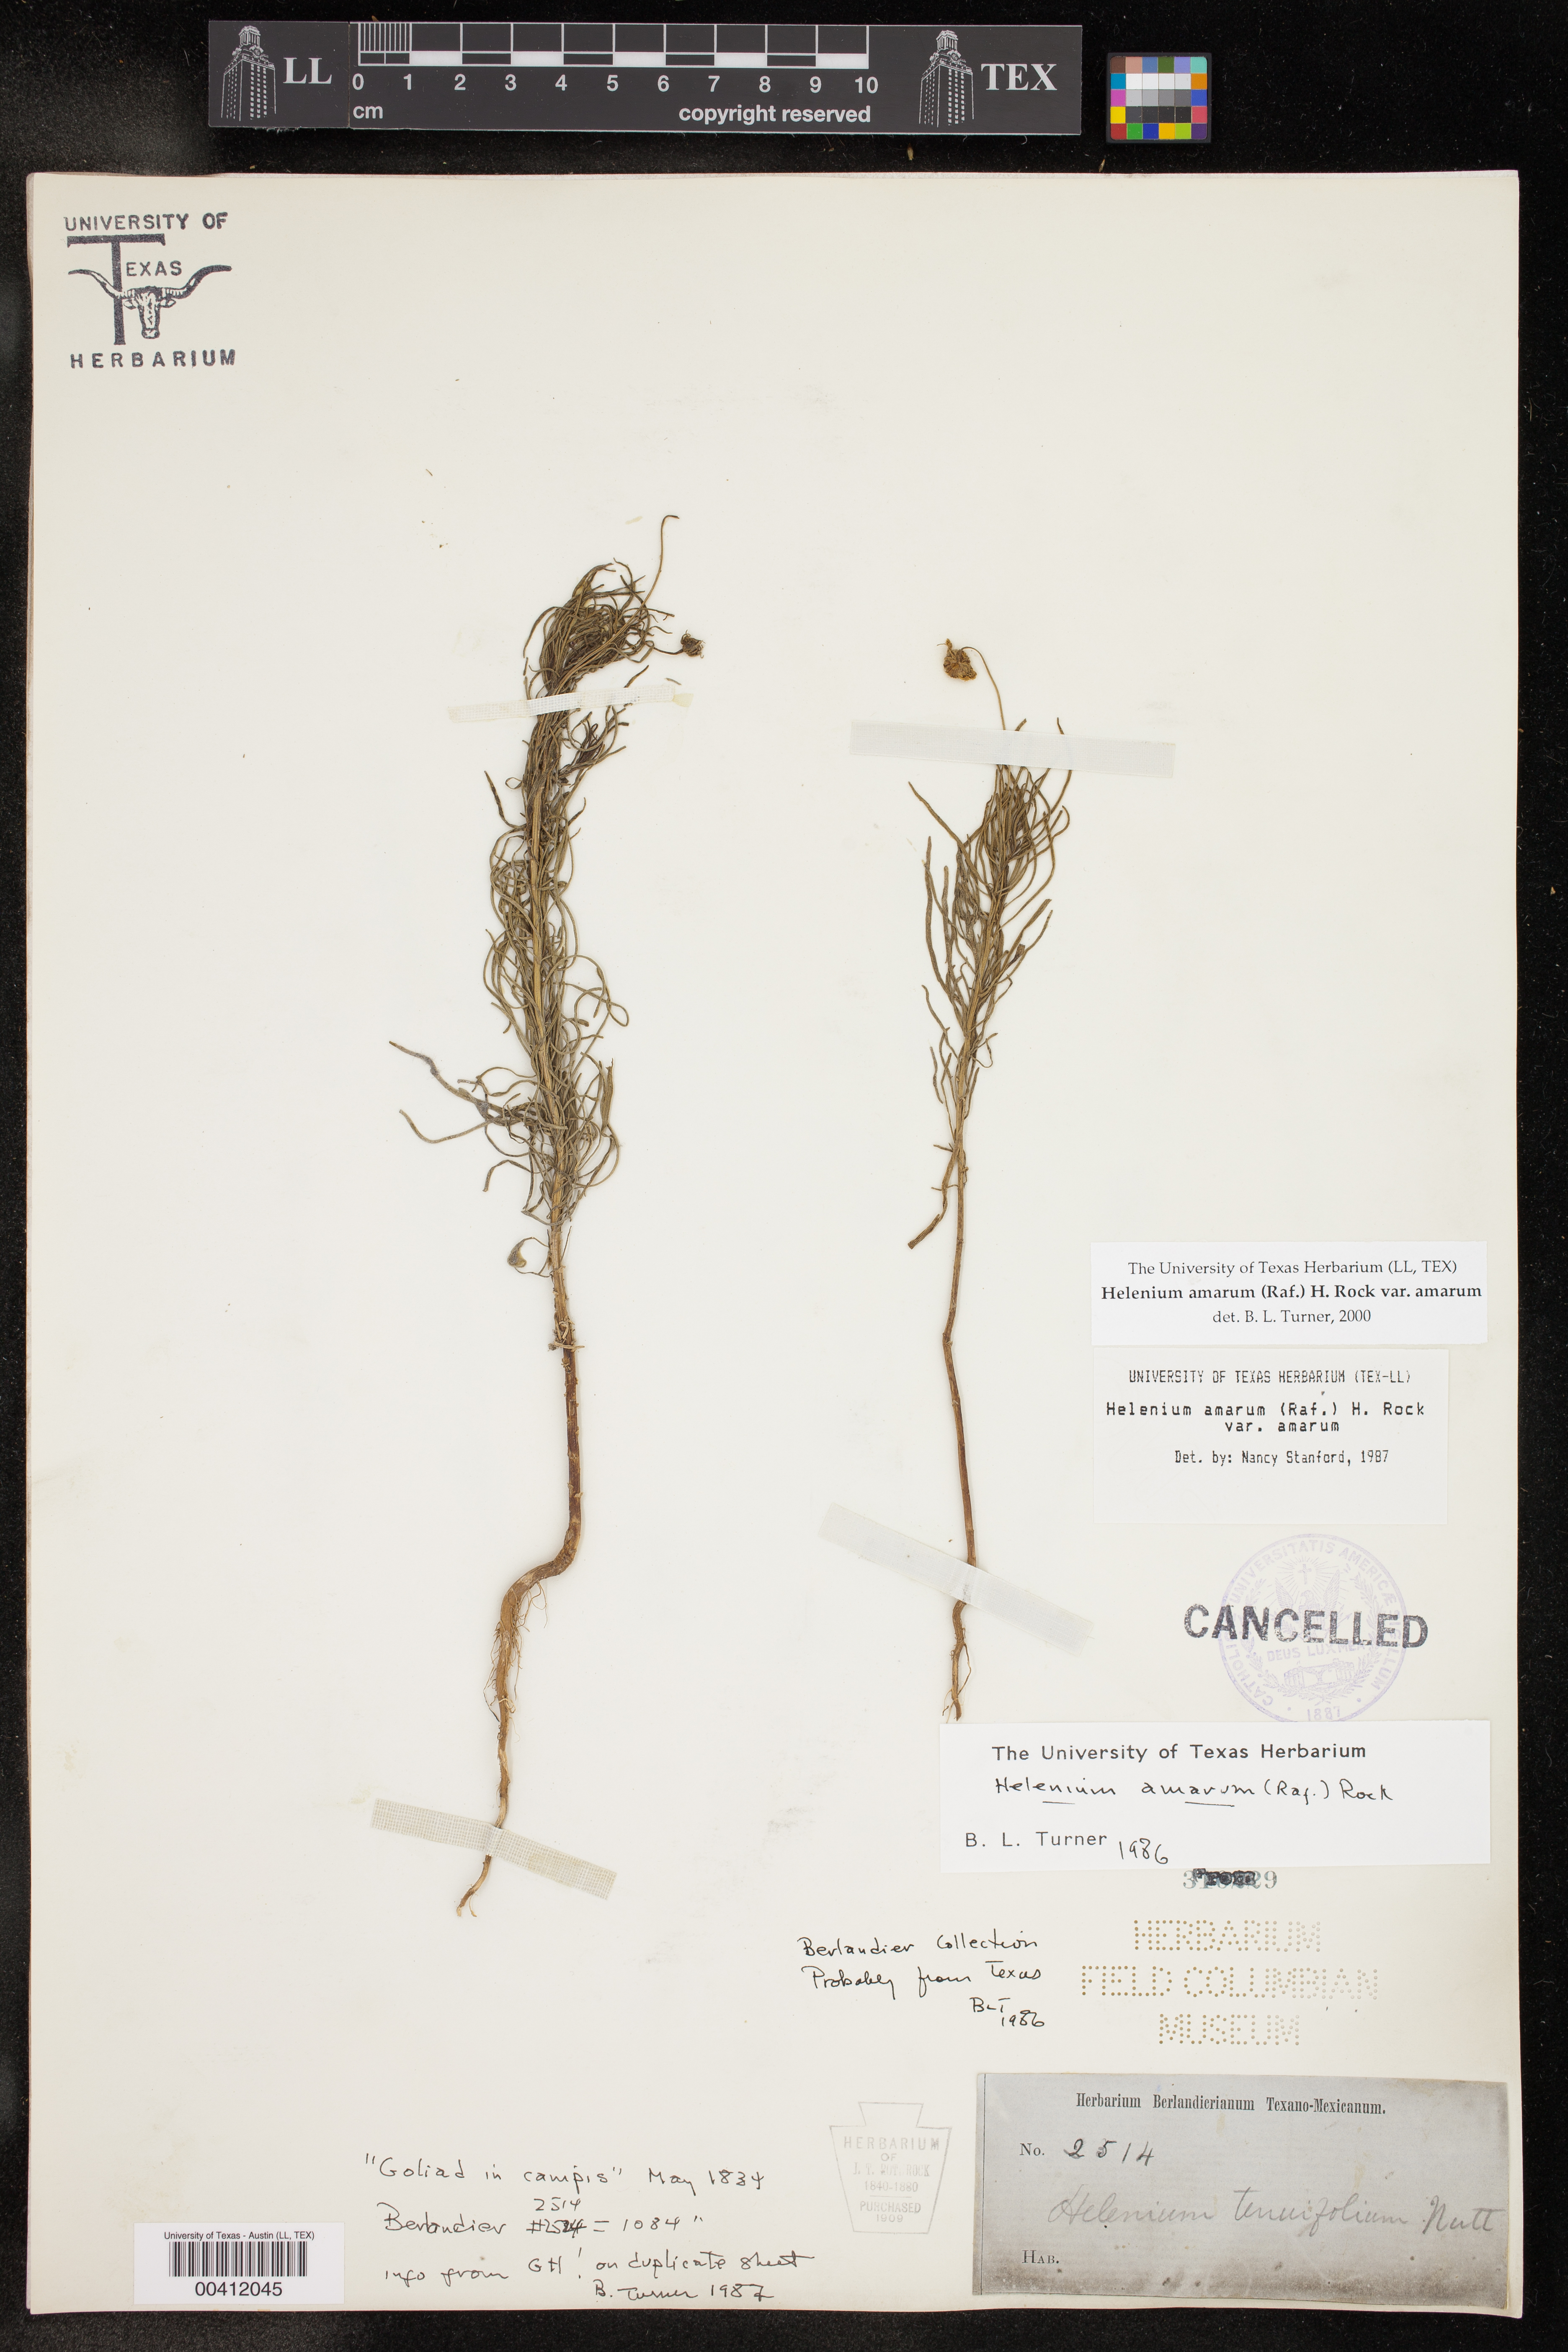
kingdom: Plantae
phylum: Tracheophyta
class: Magnoliopsida
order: Asterales
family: Asteraceae
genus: Helenium
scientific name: Helenium amarum
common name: Bitter sneezeweed
